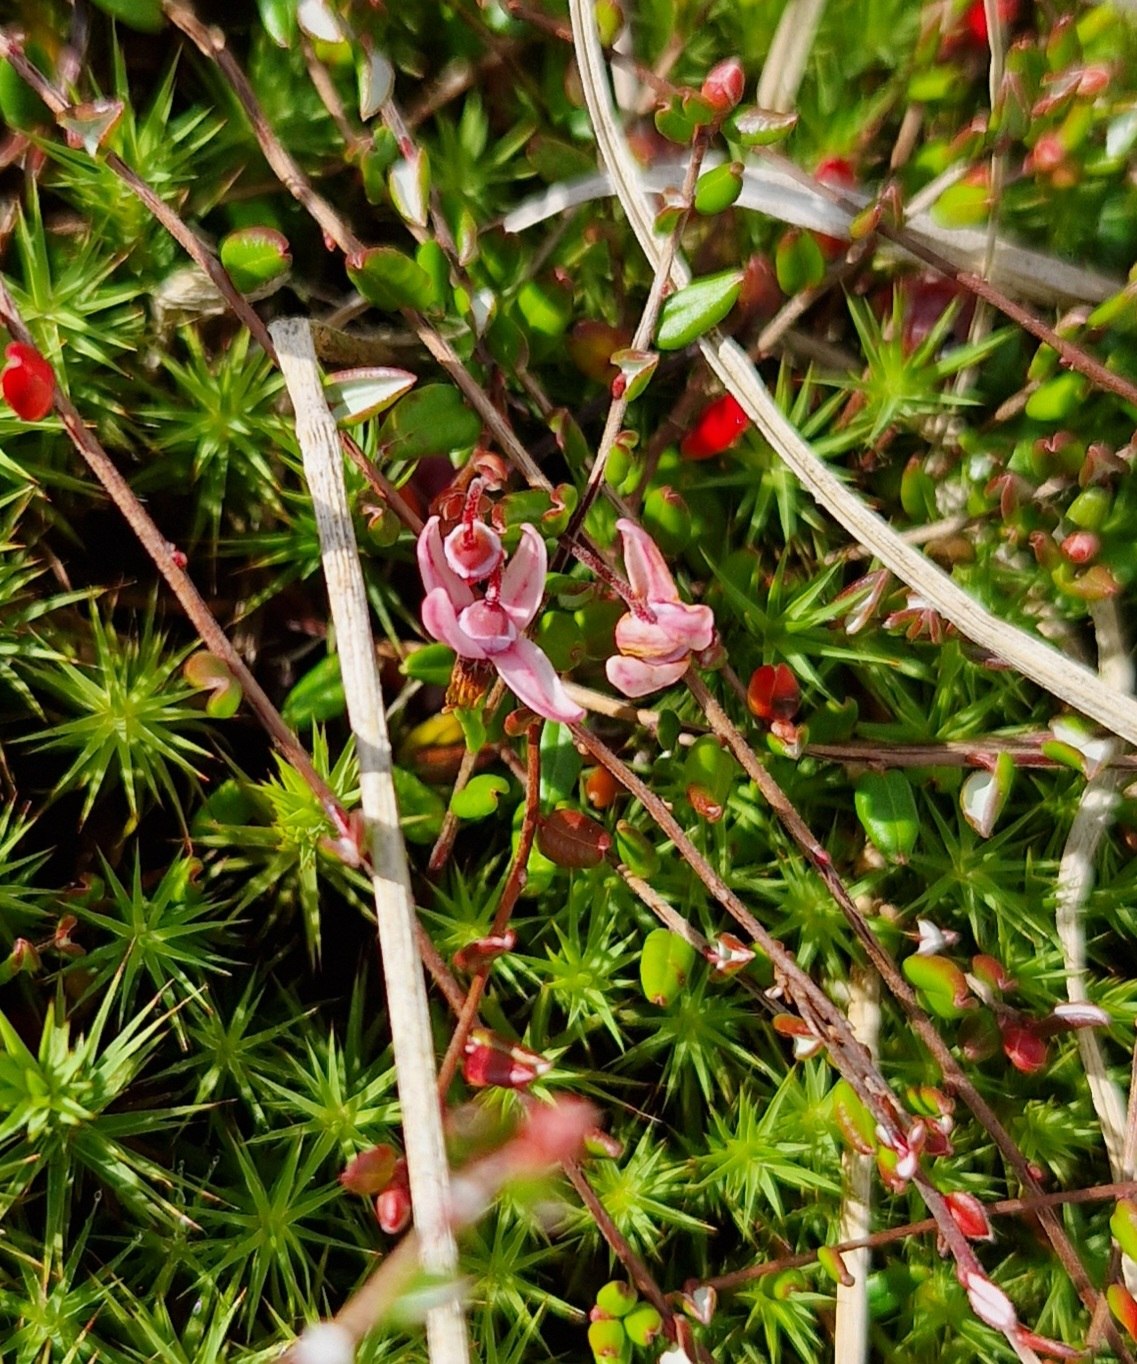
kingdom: Plantae
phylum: Tracheophyta
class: Magnoliopsida
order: Ericales
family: Ericaceae
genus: Vaccinium
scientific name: Vaccinium oxycoccos
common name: Tranebær
